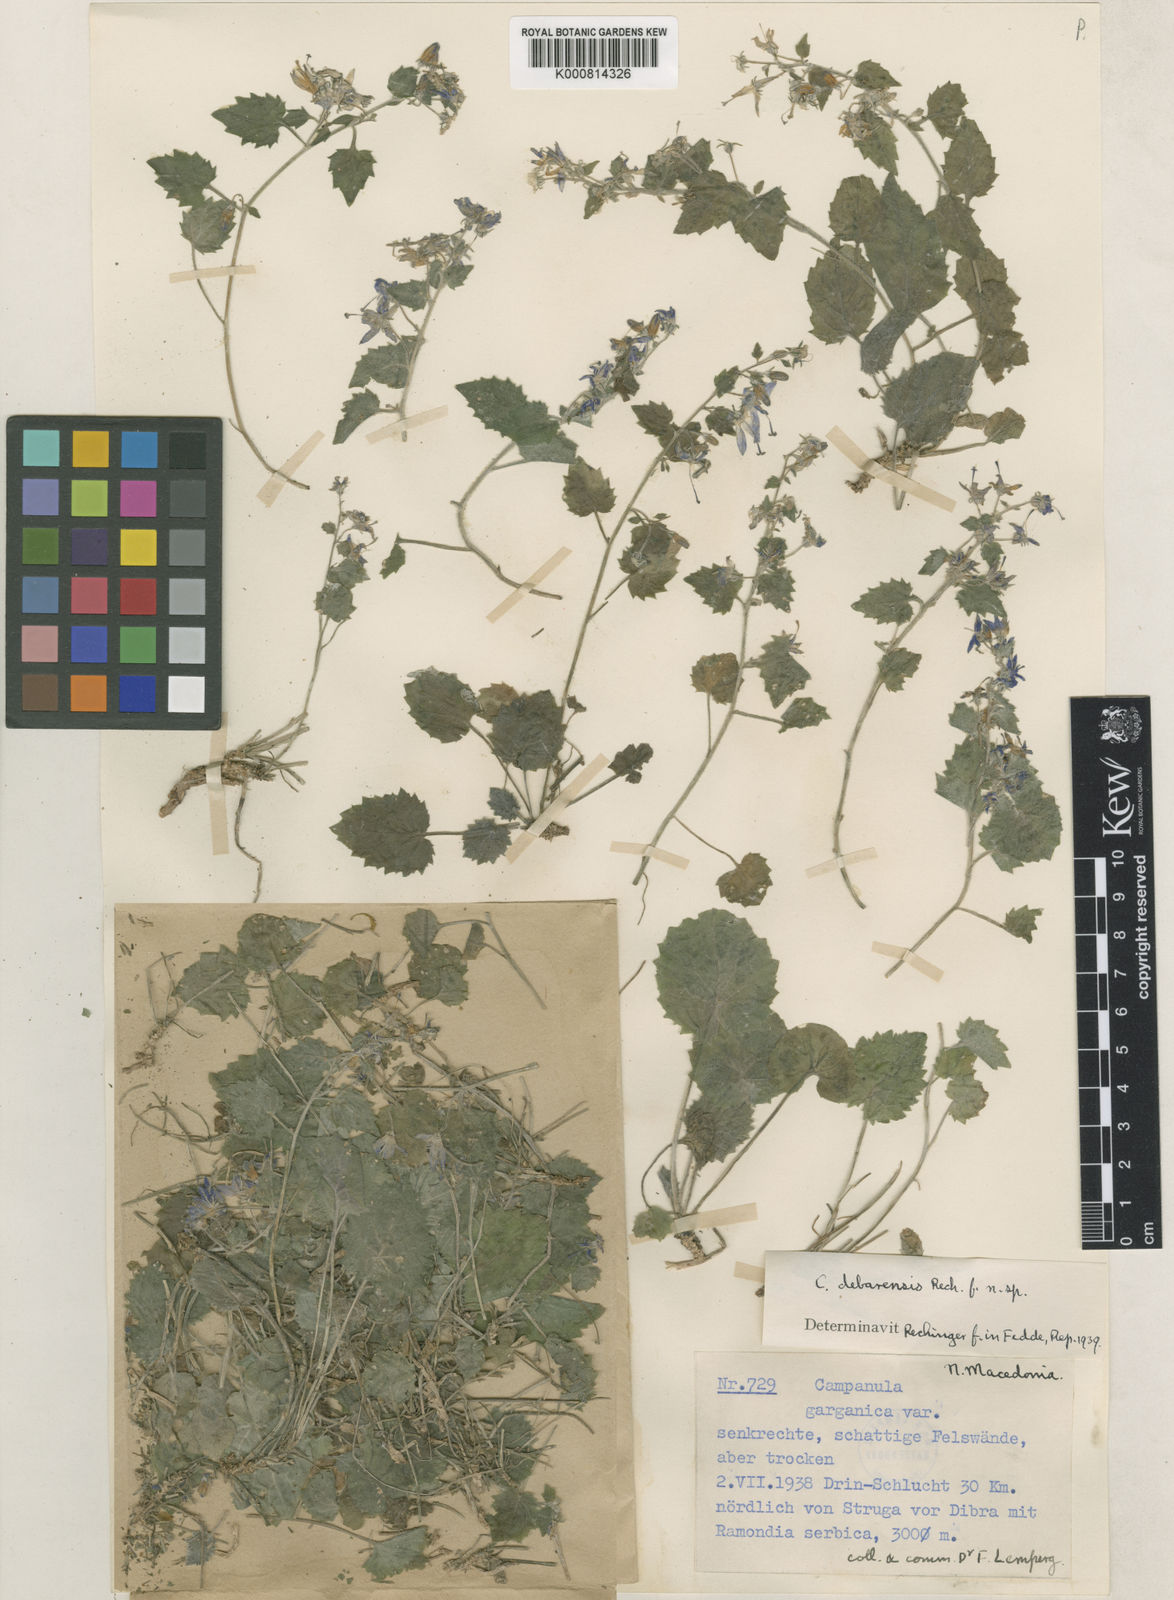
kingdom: Plantae
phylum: Tracheophyta
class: Magnoliopsida
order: Asterales
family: Campanulaceae
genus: Campanula
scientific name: Campanula fenestrellata
